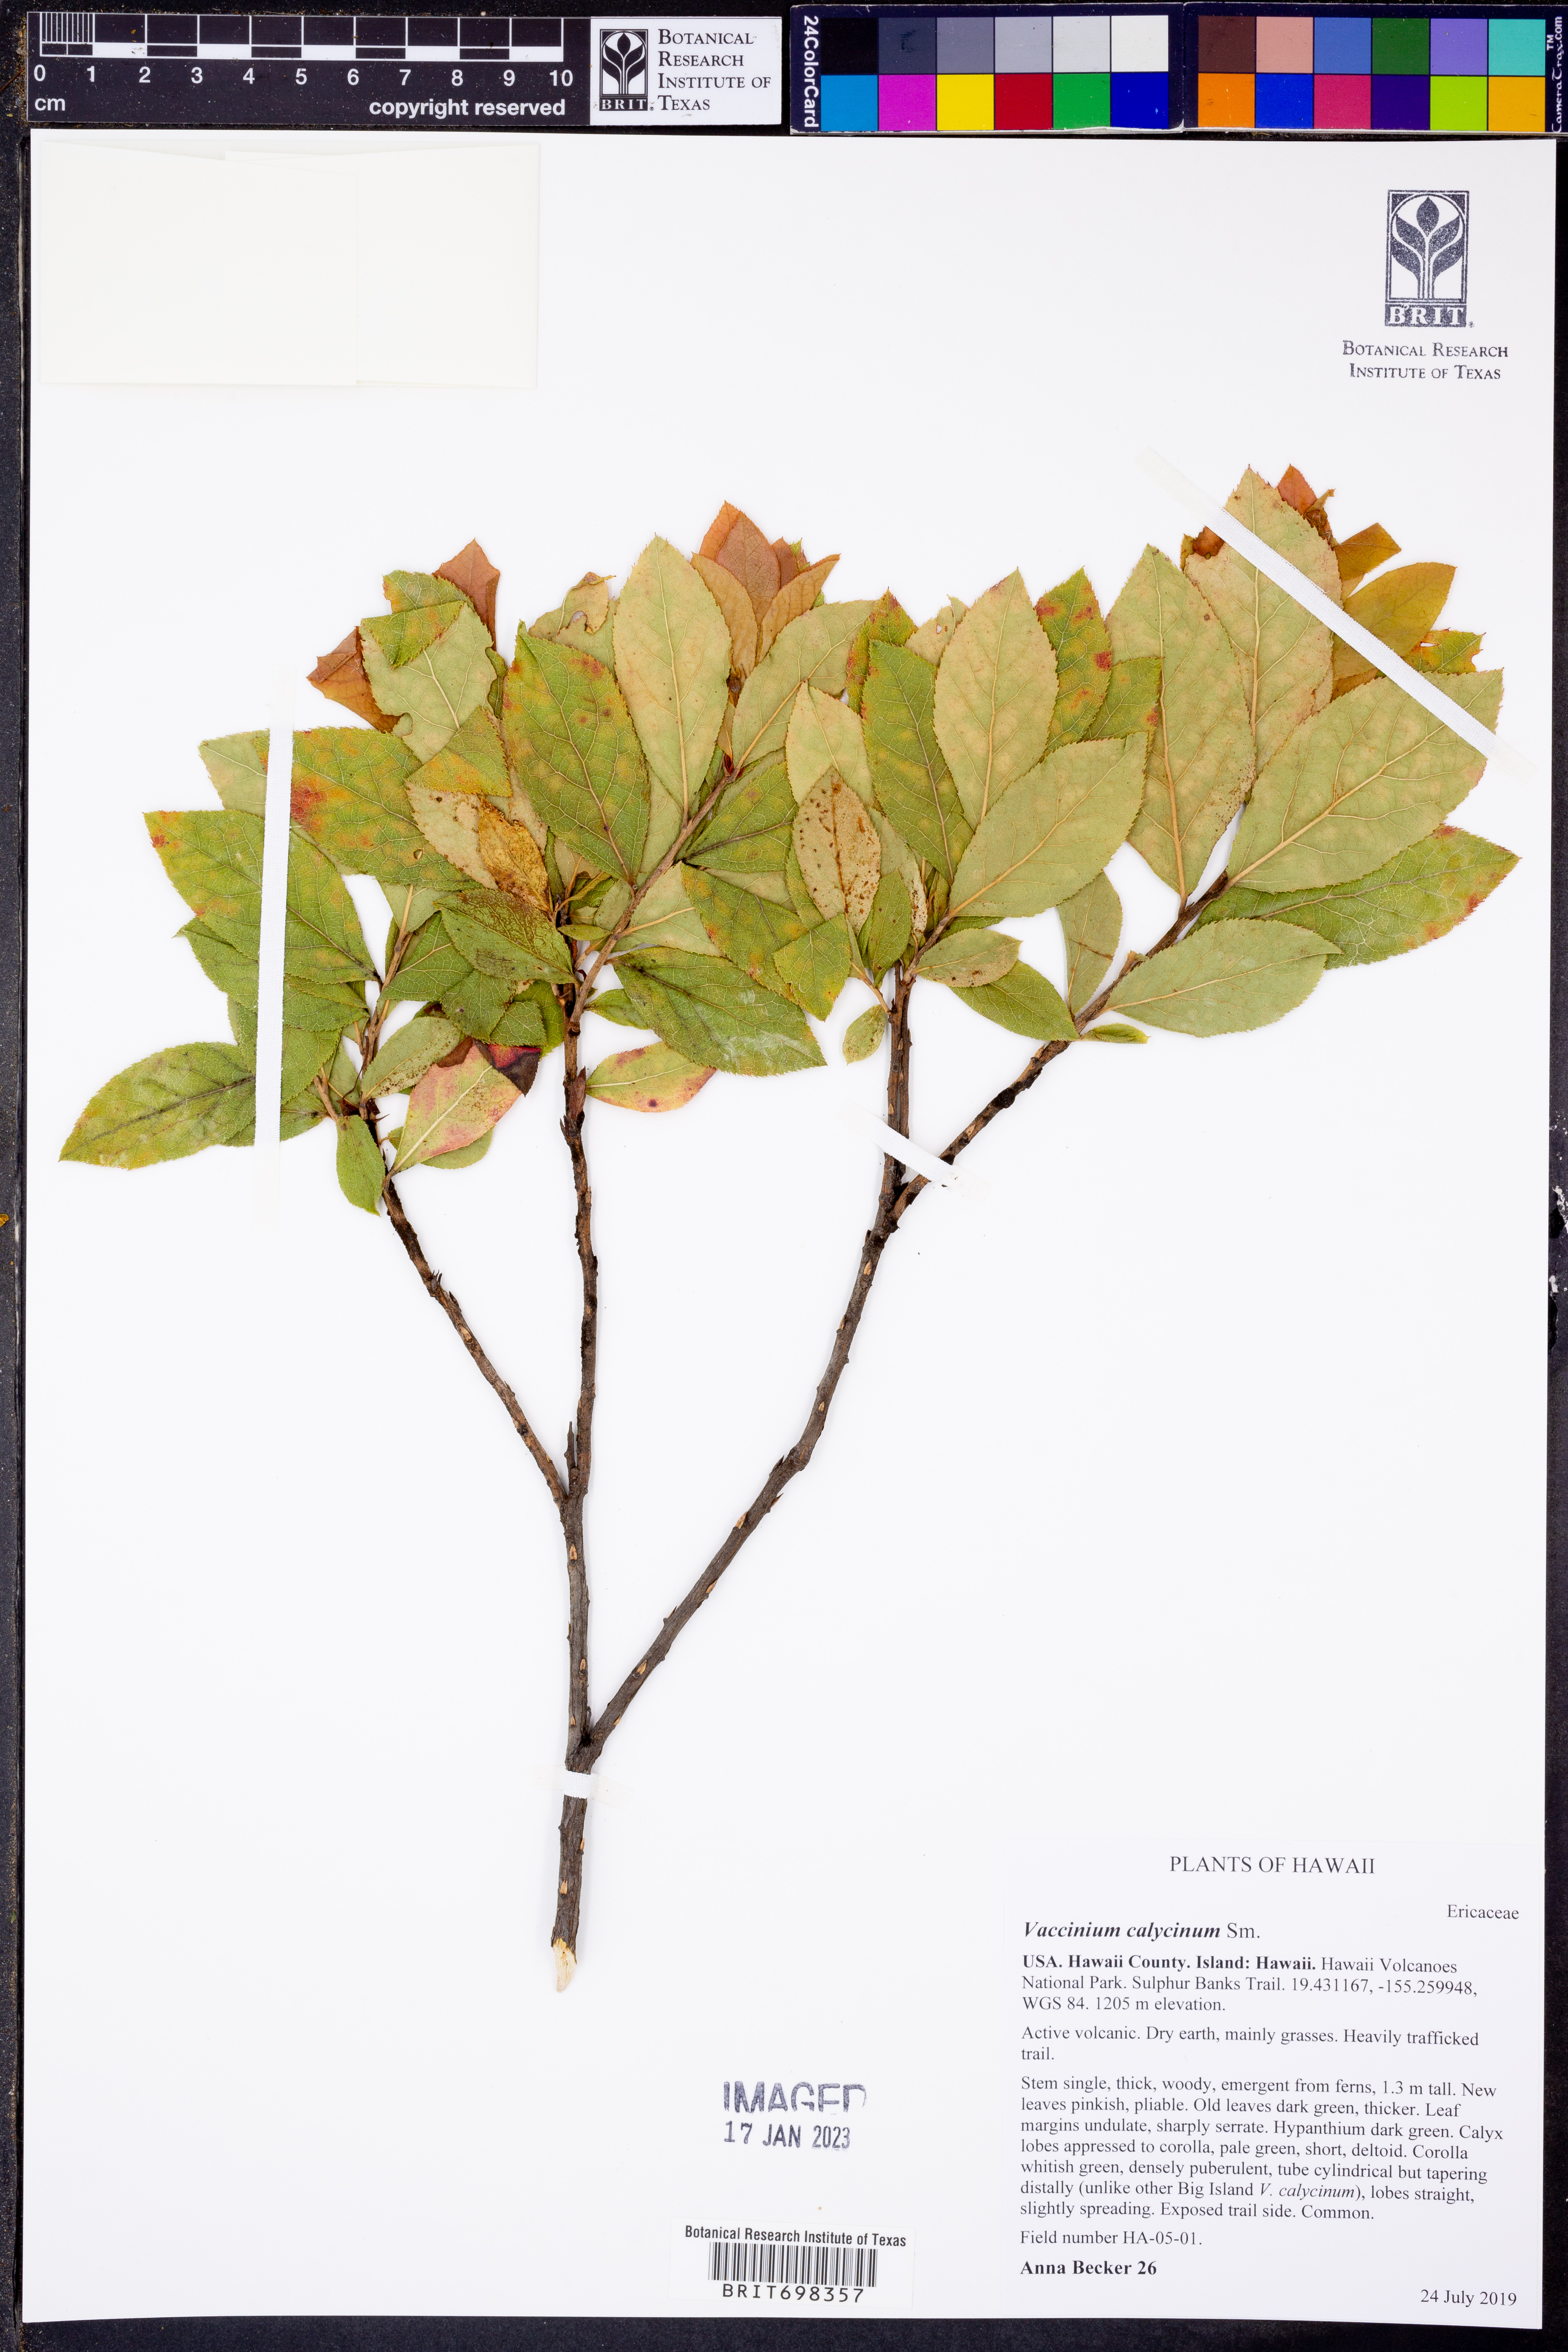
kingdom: Plantae
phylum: Tracheophyta
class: Magnoliopsida
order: Ericales
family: Ericaceae
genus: Vaccinium
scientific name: Vaccinium calycinum
